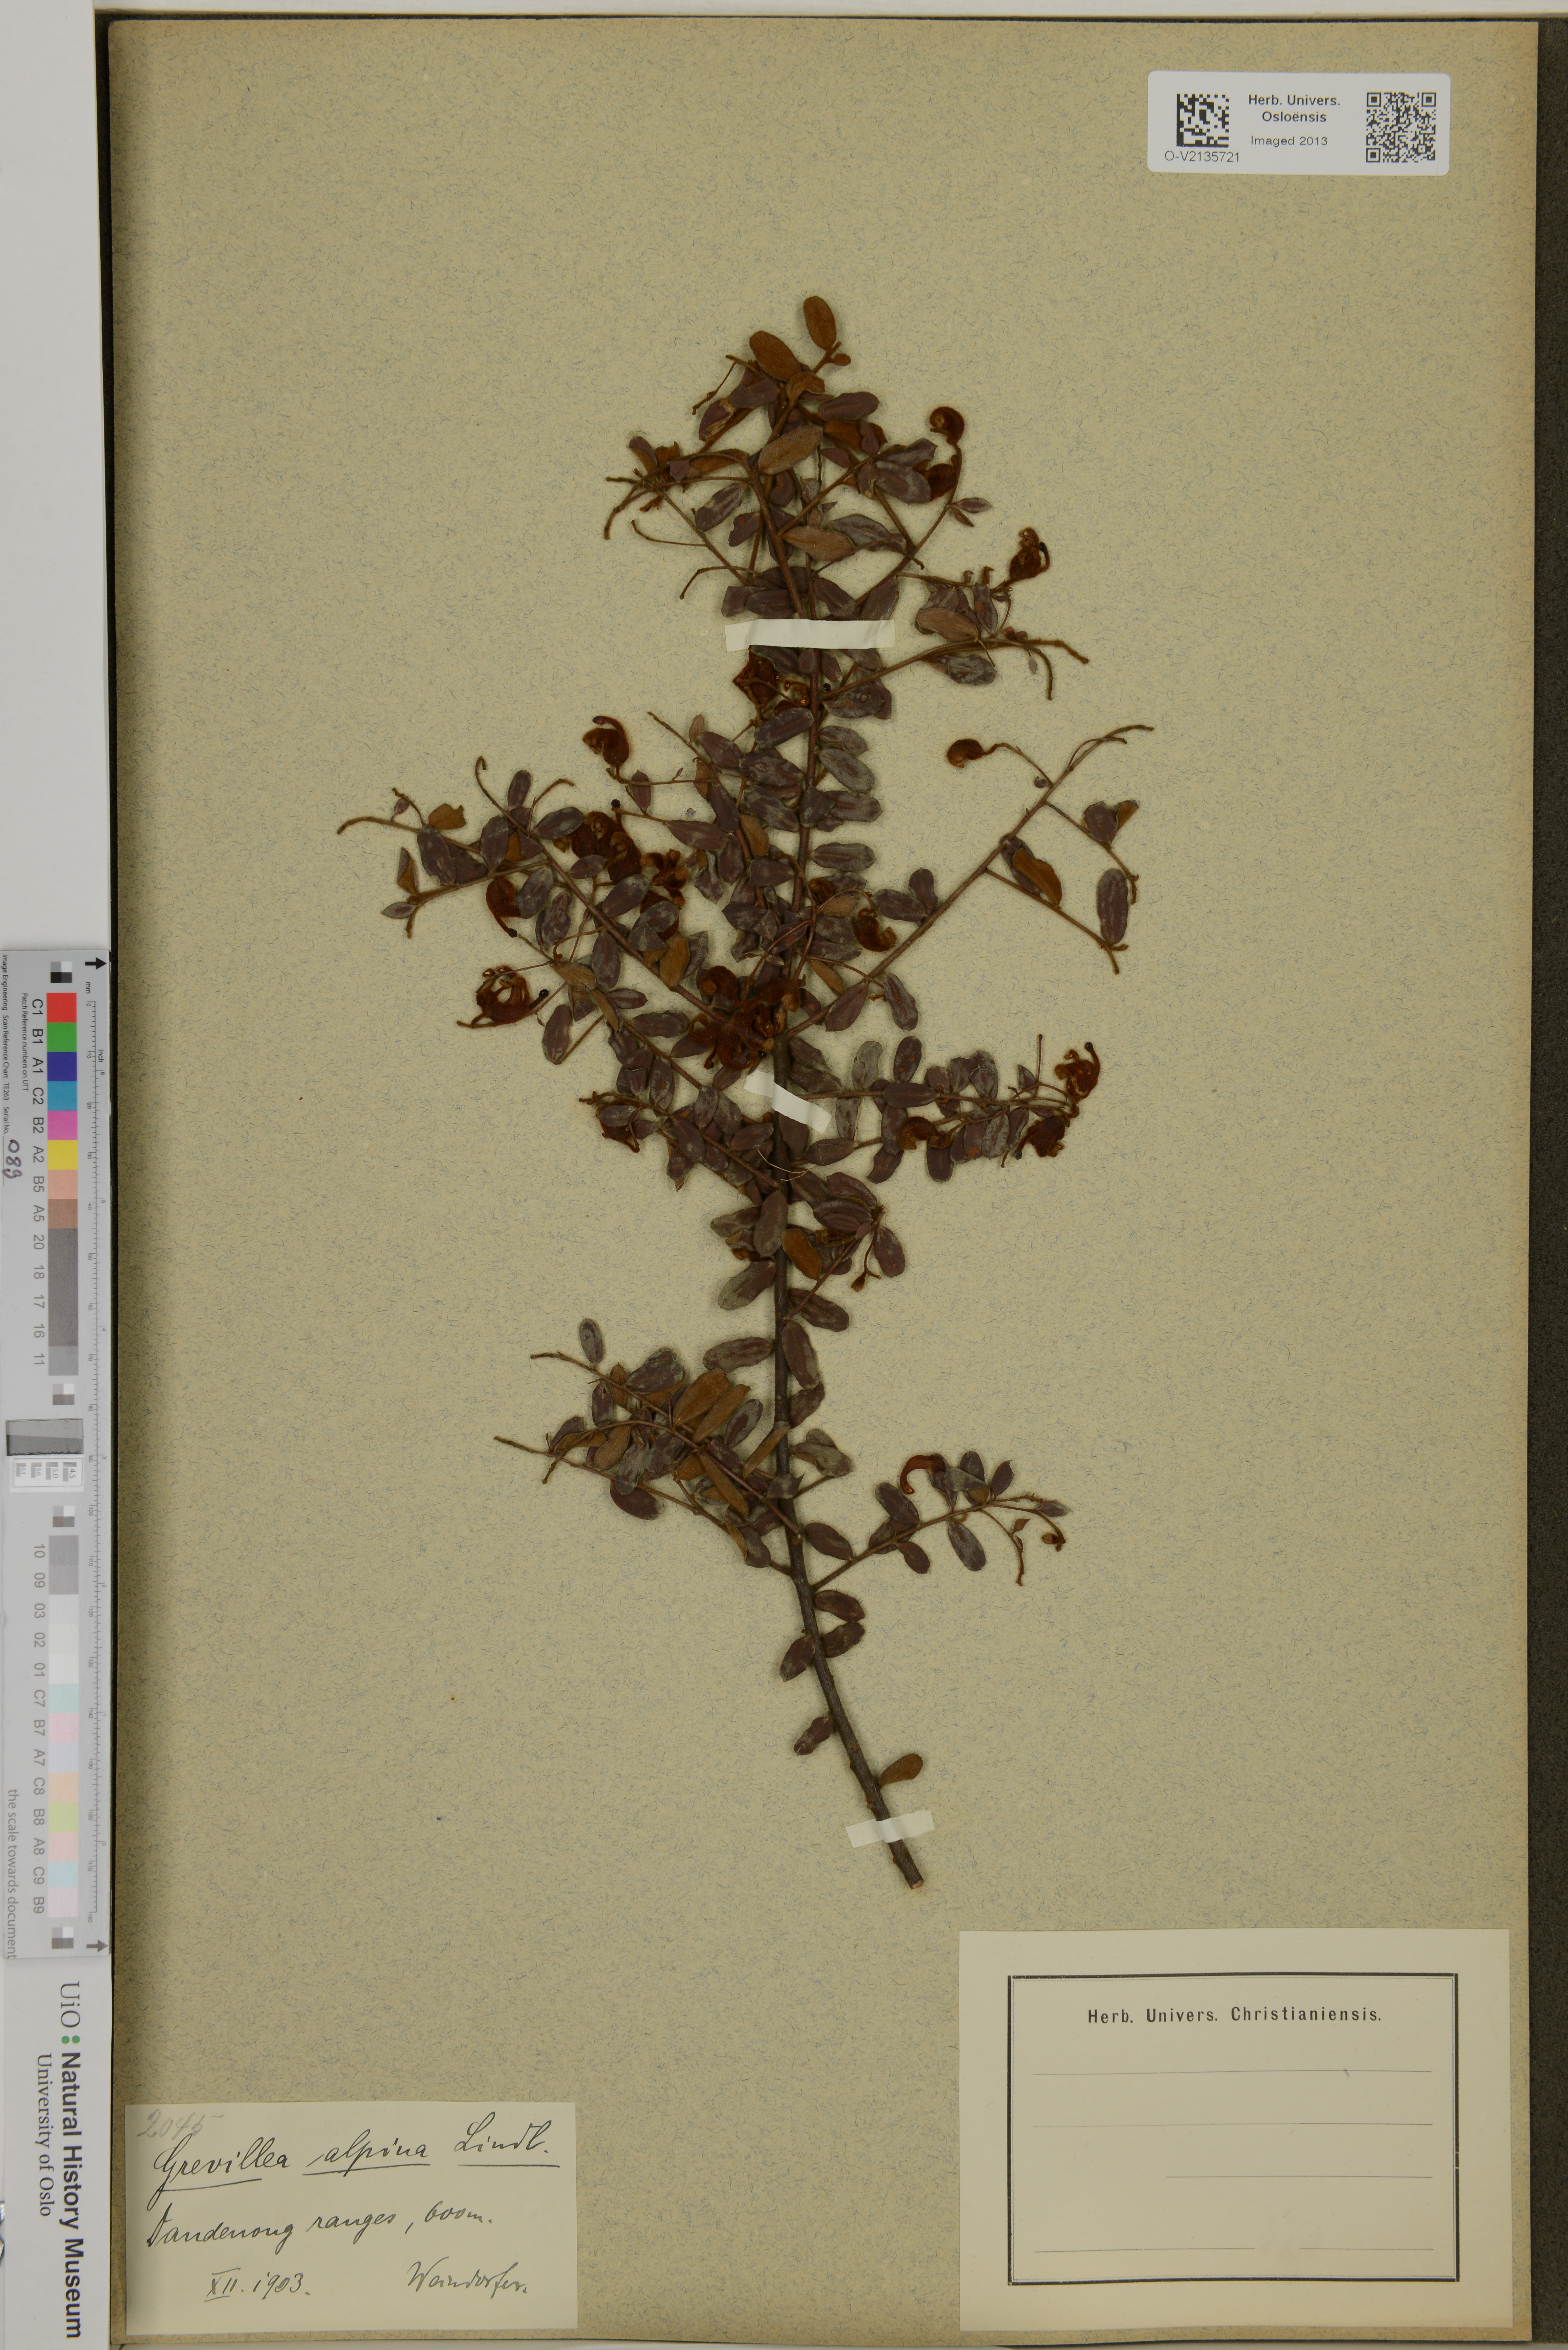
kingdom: Plantae
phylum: Tracheophyta
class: Magnoliopsida
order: Proteales
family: Proteaceae
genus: Grevillea
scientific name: Grevillea alpina
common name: Catclaws grevillea
